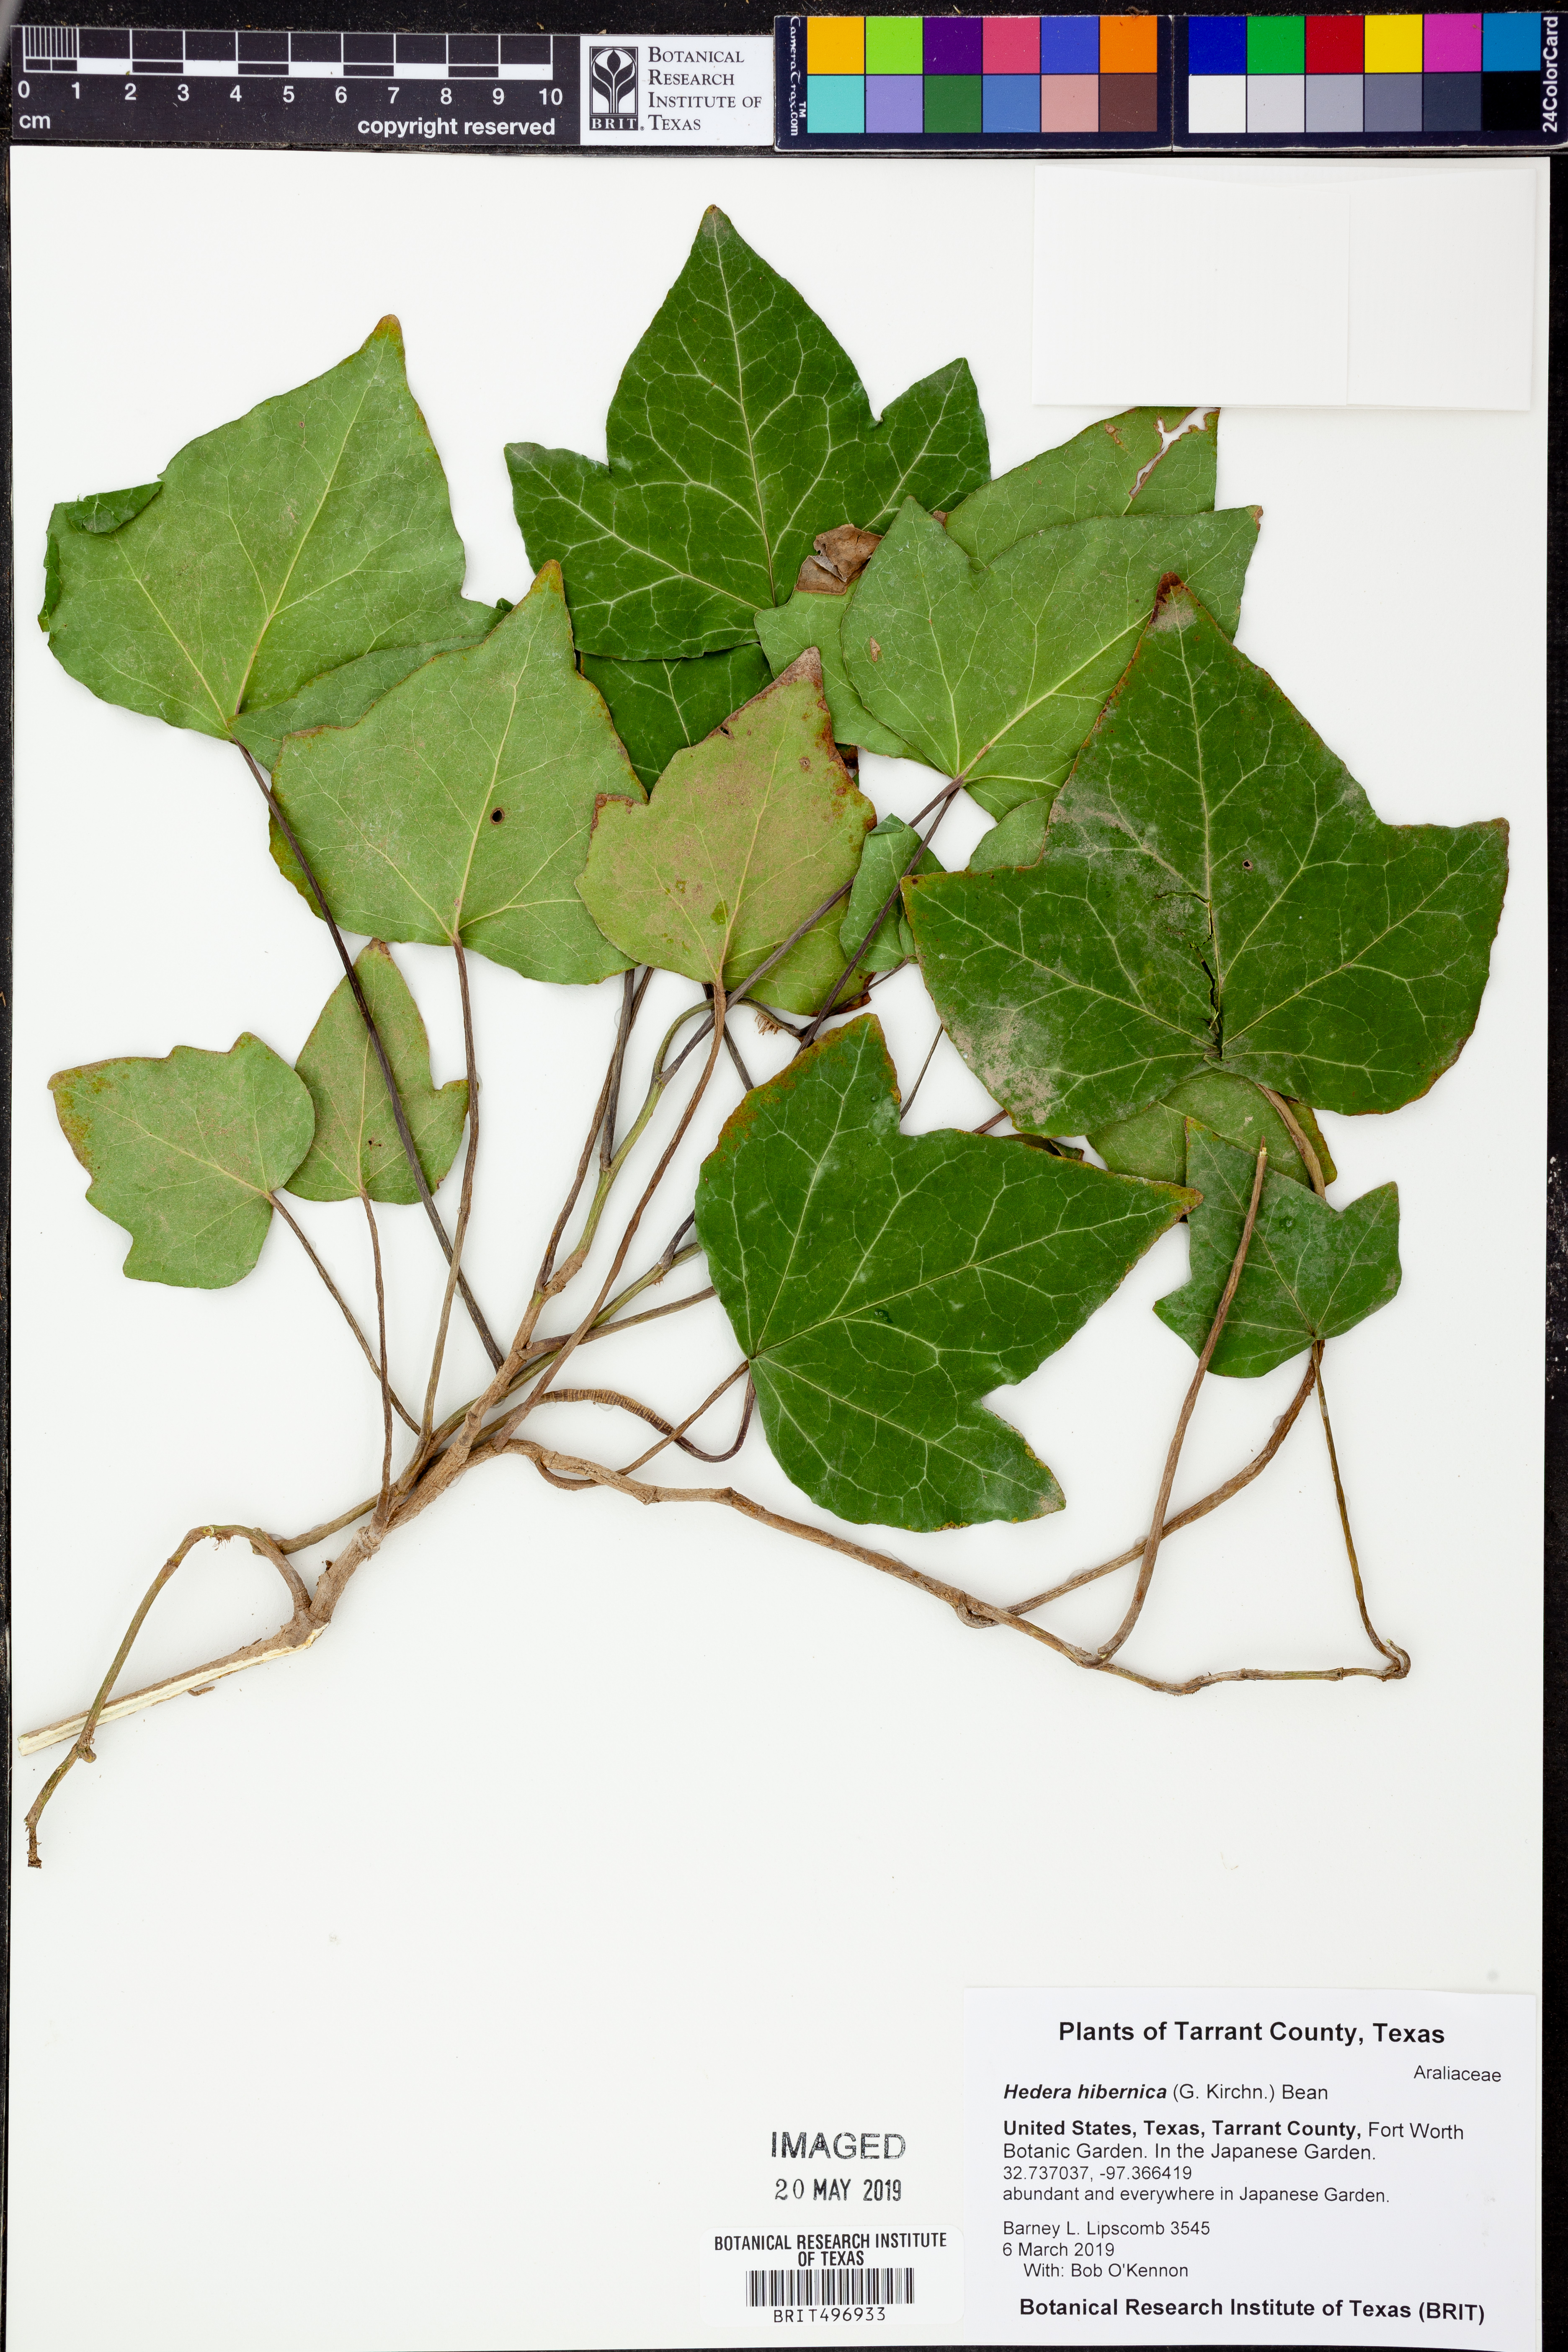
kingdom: Plantae
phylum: Tracheophyta
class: Magnoliopsida
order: Apiales
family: Araliaceae
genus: Hedera
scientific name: Hedera hibernica
